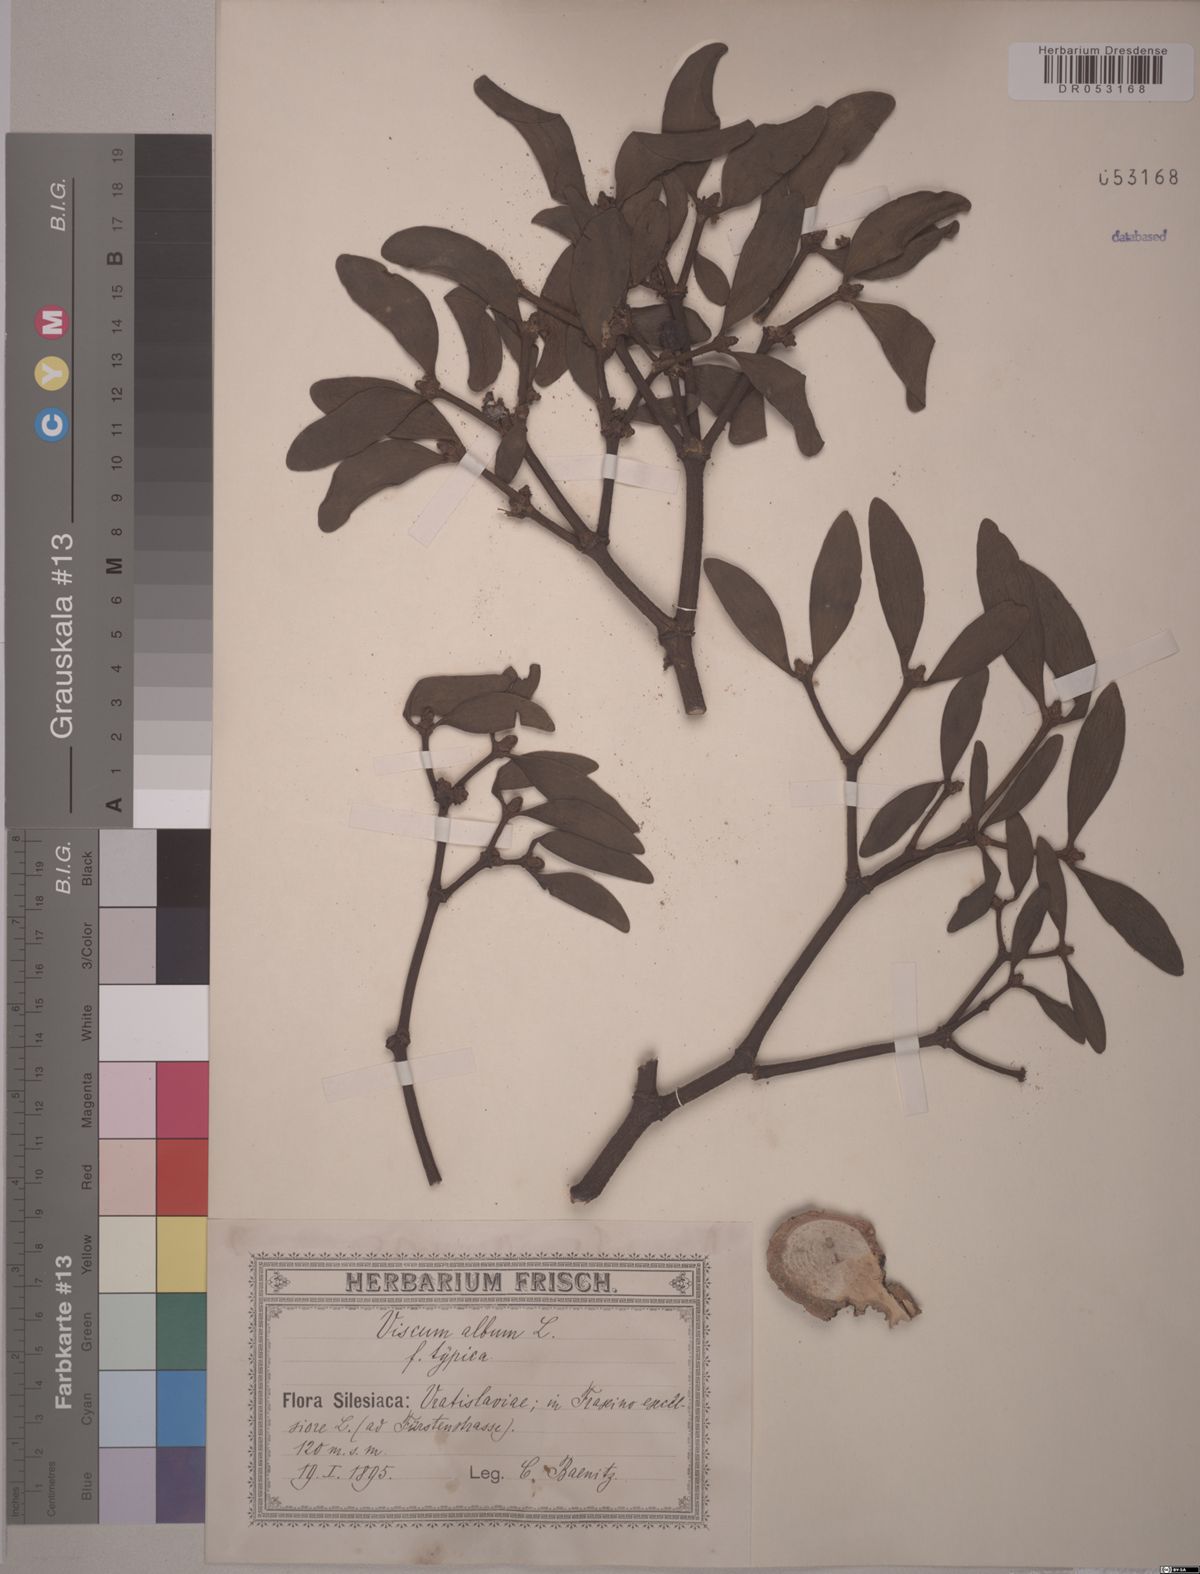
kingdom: Plantae
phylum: Tracheophyta
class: Magnoliopsida
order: Santalales
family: Viscaceae
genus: Viscum
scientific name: Viscum album
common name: Mistletoe
